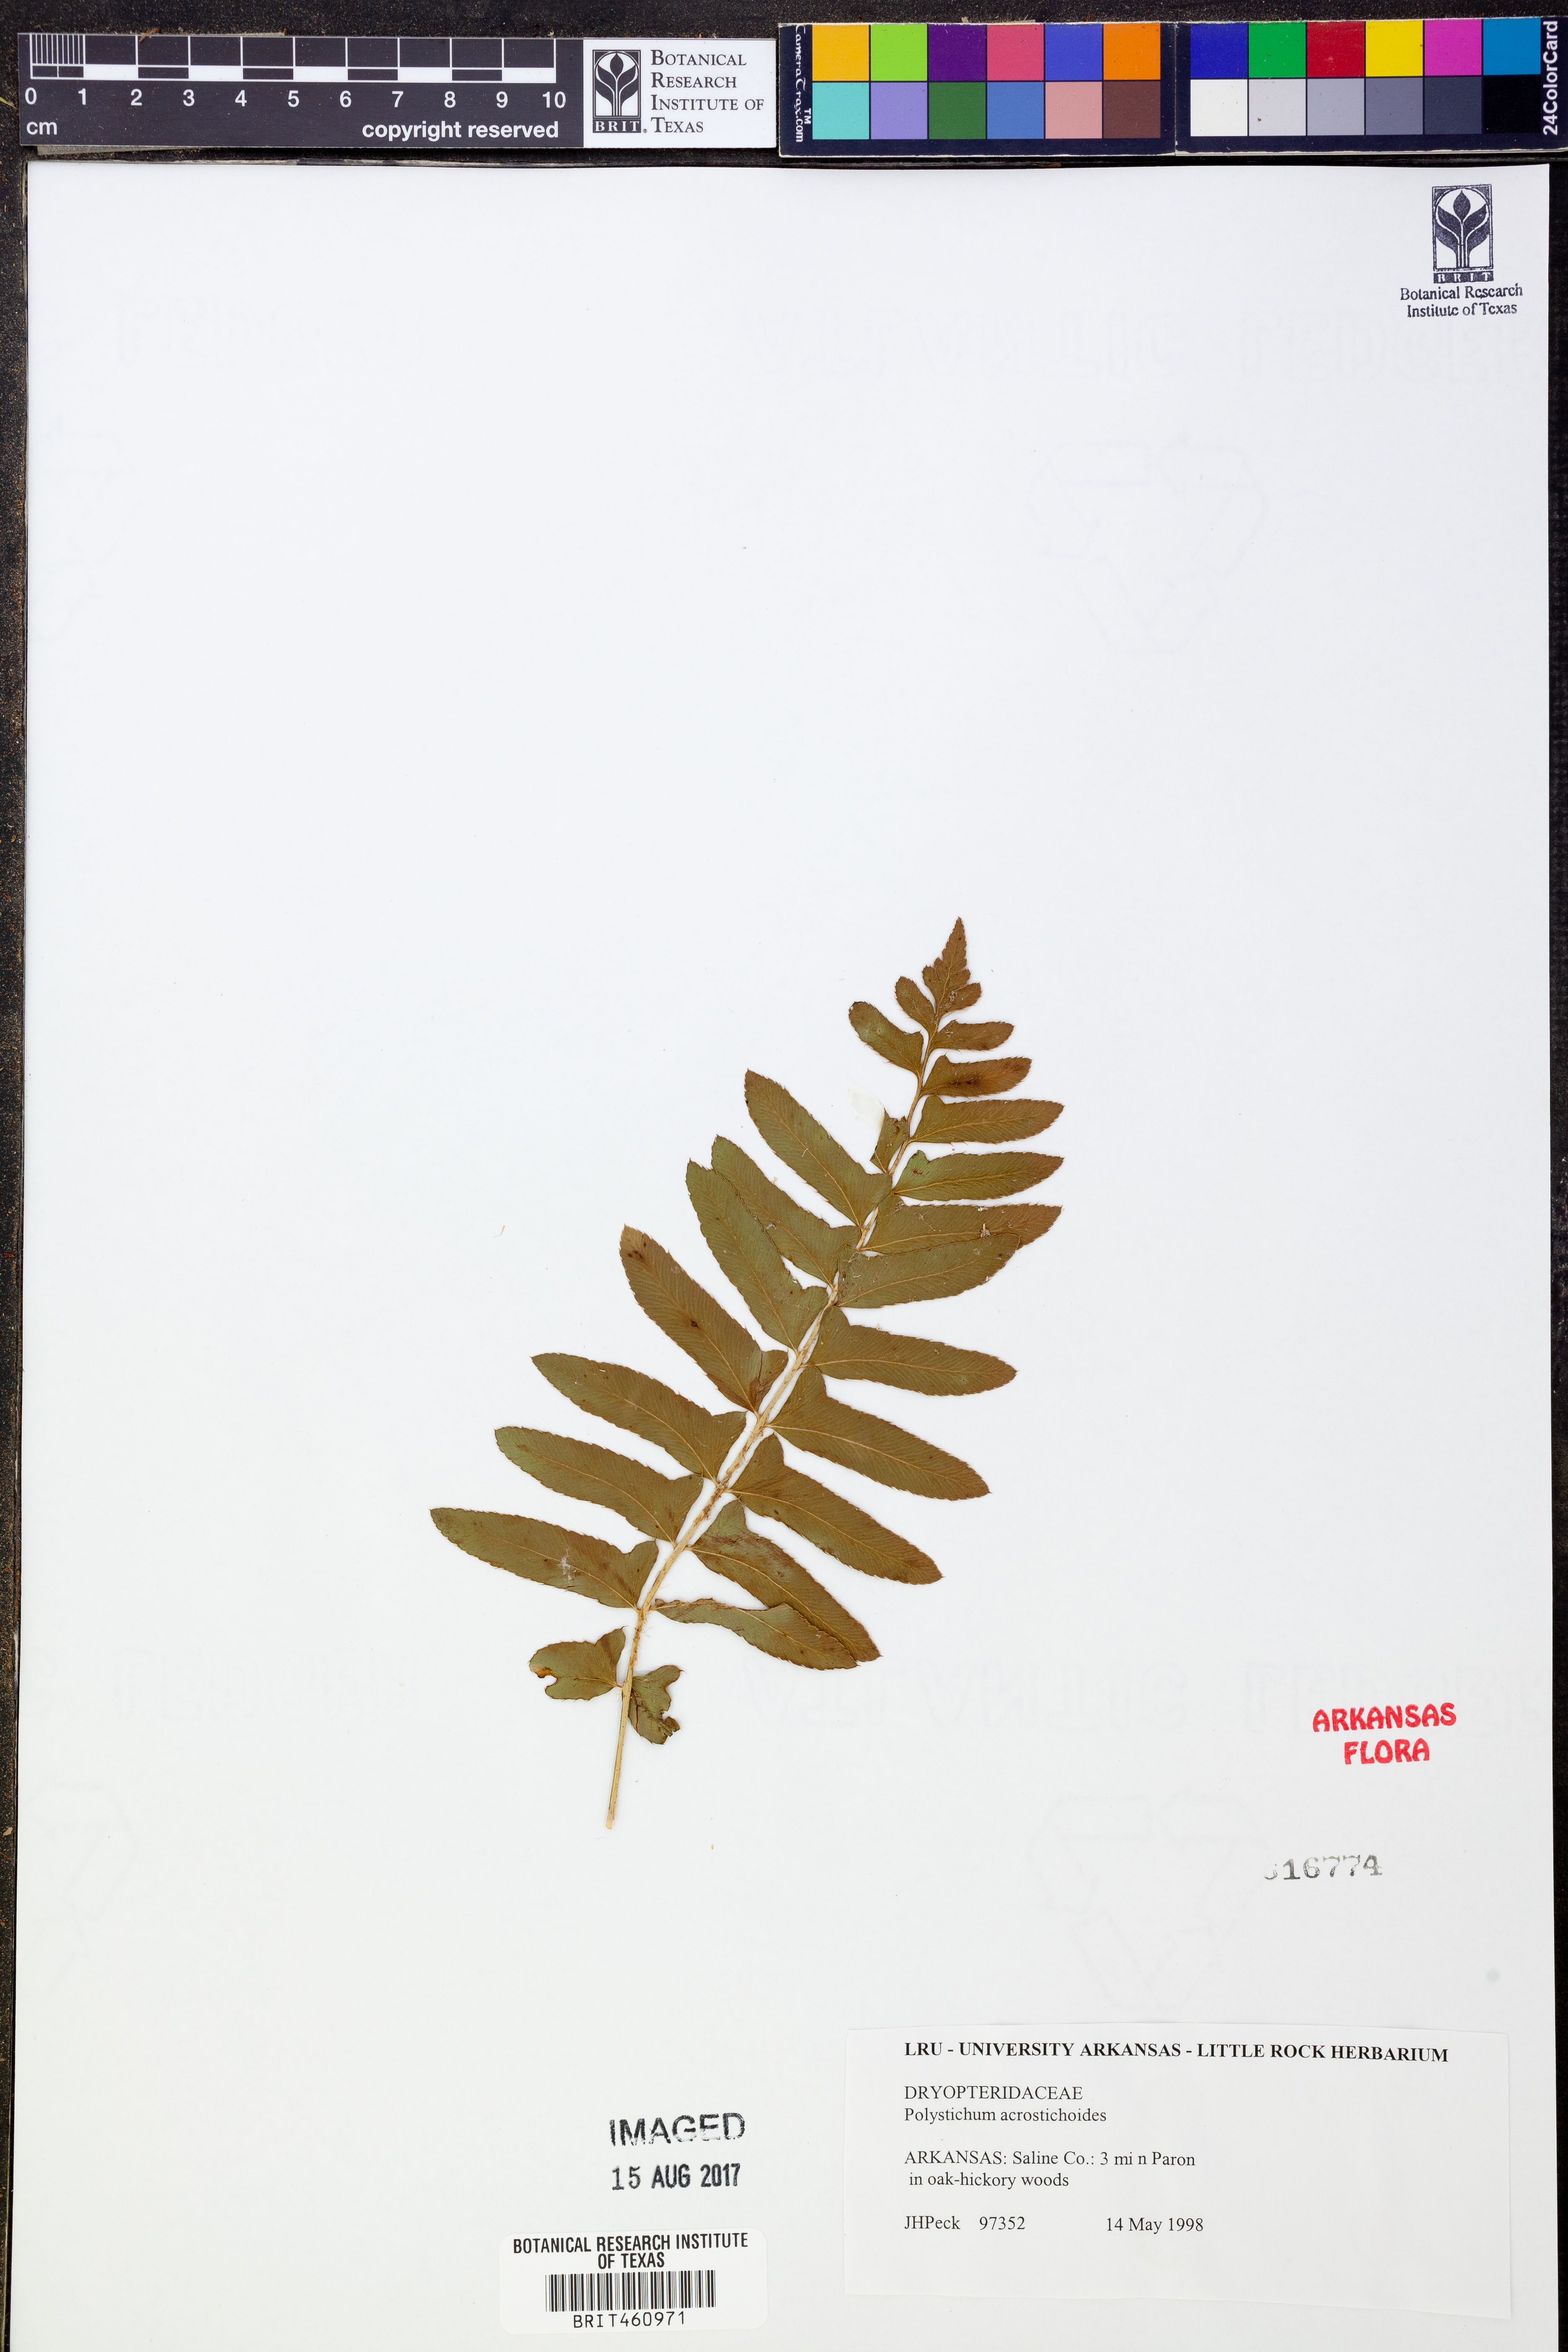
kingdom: Plantae
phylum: Tracheophyta
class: Polypodiopsida
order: Polypodiales
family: Dryopteridaceae
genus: Polystichum
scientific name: Polystichum acrostichoides
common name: Christmas fern
